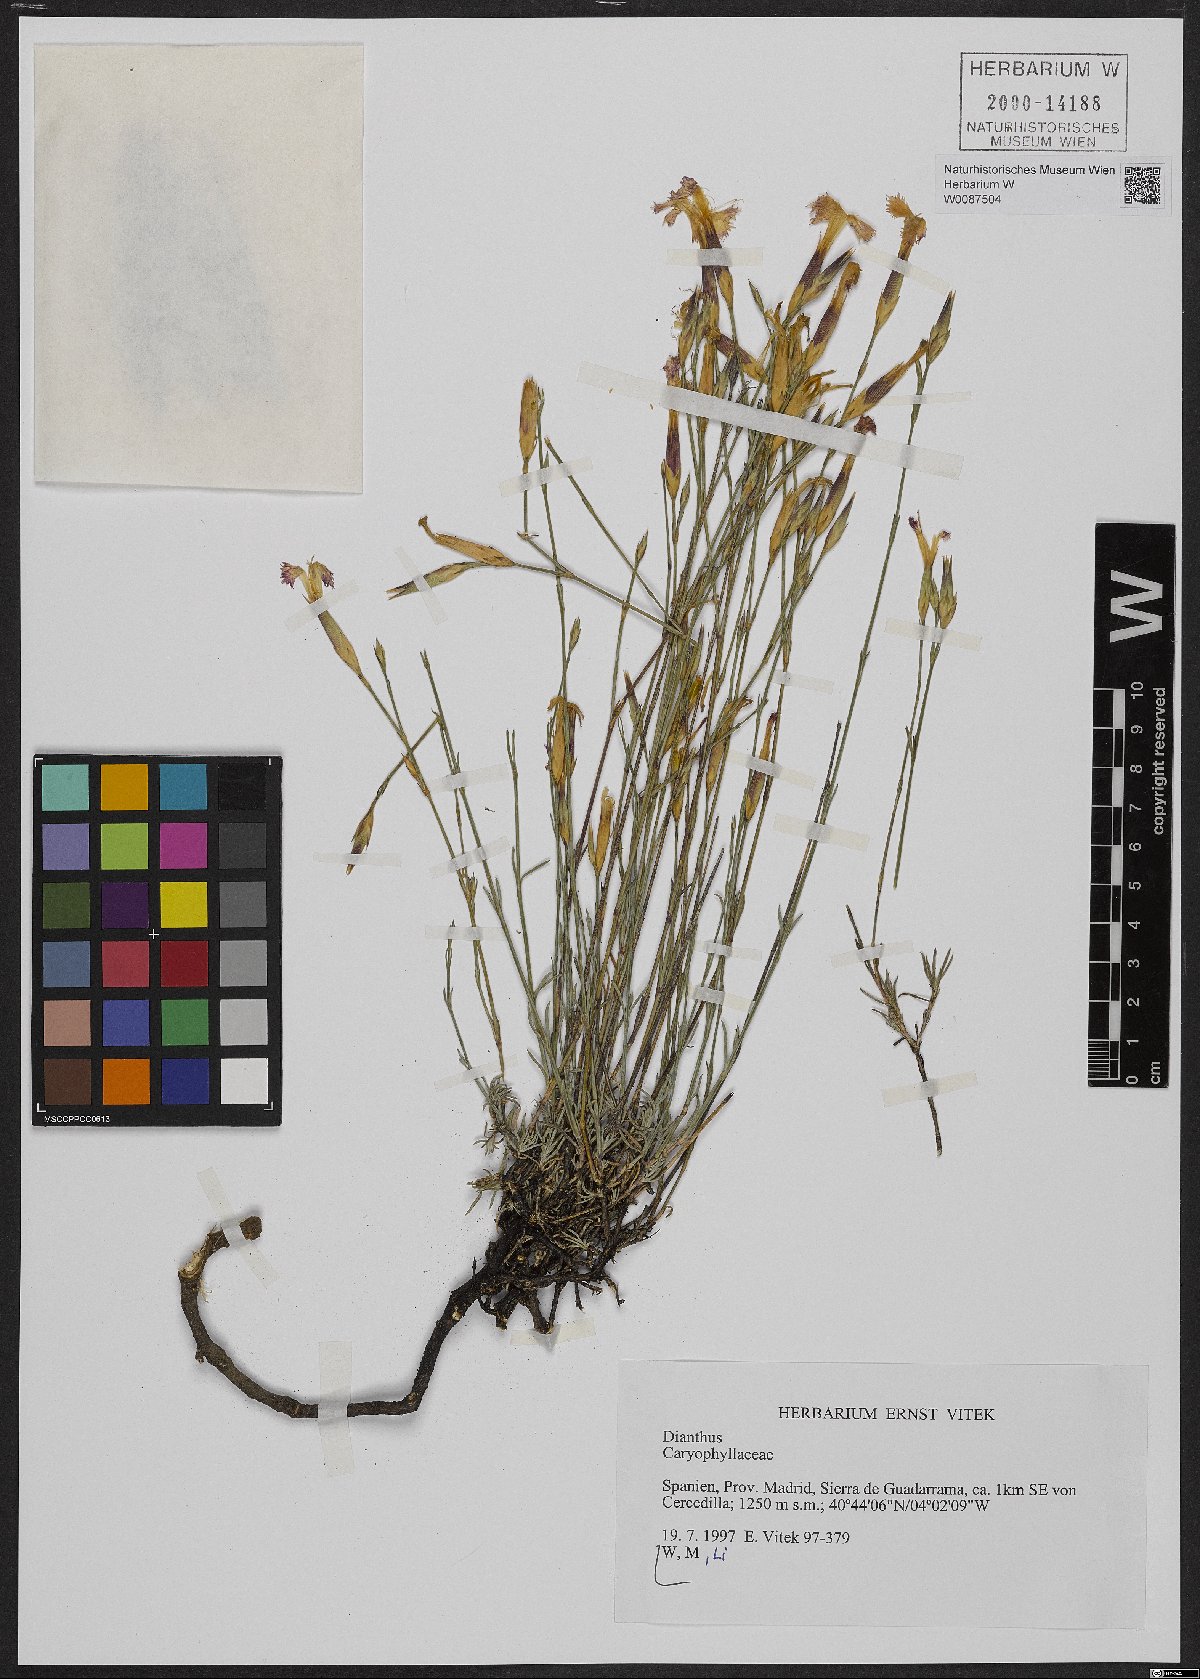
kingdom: Plantae
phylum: Tracheophyta
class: Magnoliopsida
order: Caryophyllales
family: Caryophyllaceae
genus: Dianthus
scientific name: Dianthus
